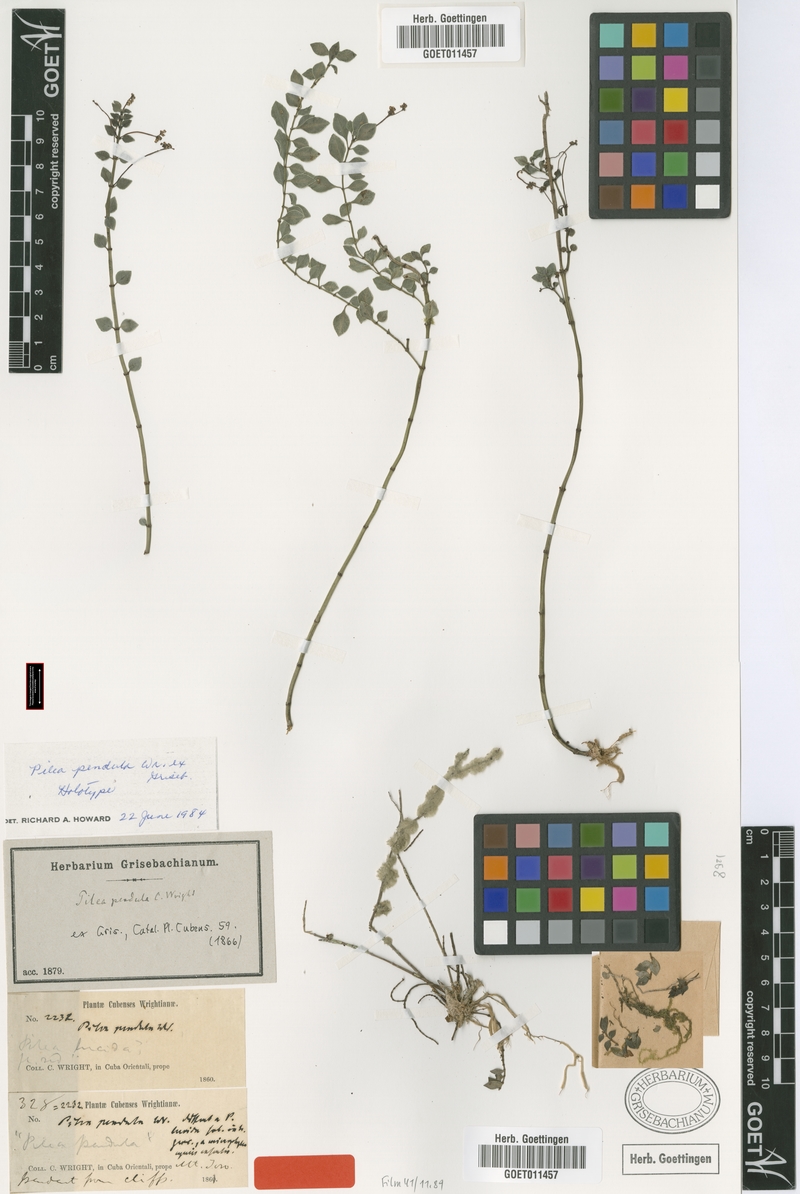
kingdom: Plantae
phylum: Tracheophyta
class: Magnoliopsida
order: Rosales
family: Urticaceae
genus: Pilea
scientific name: Pilea libanensis
